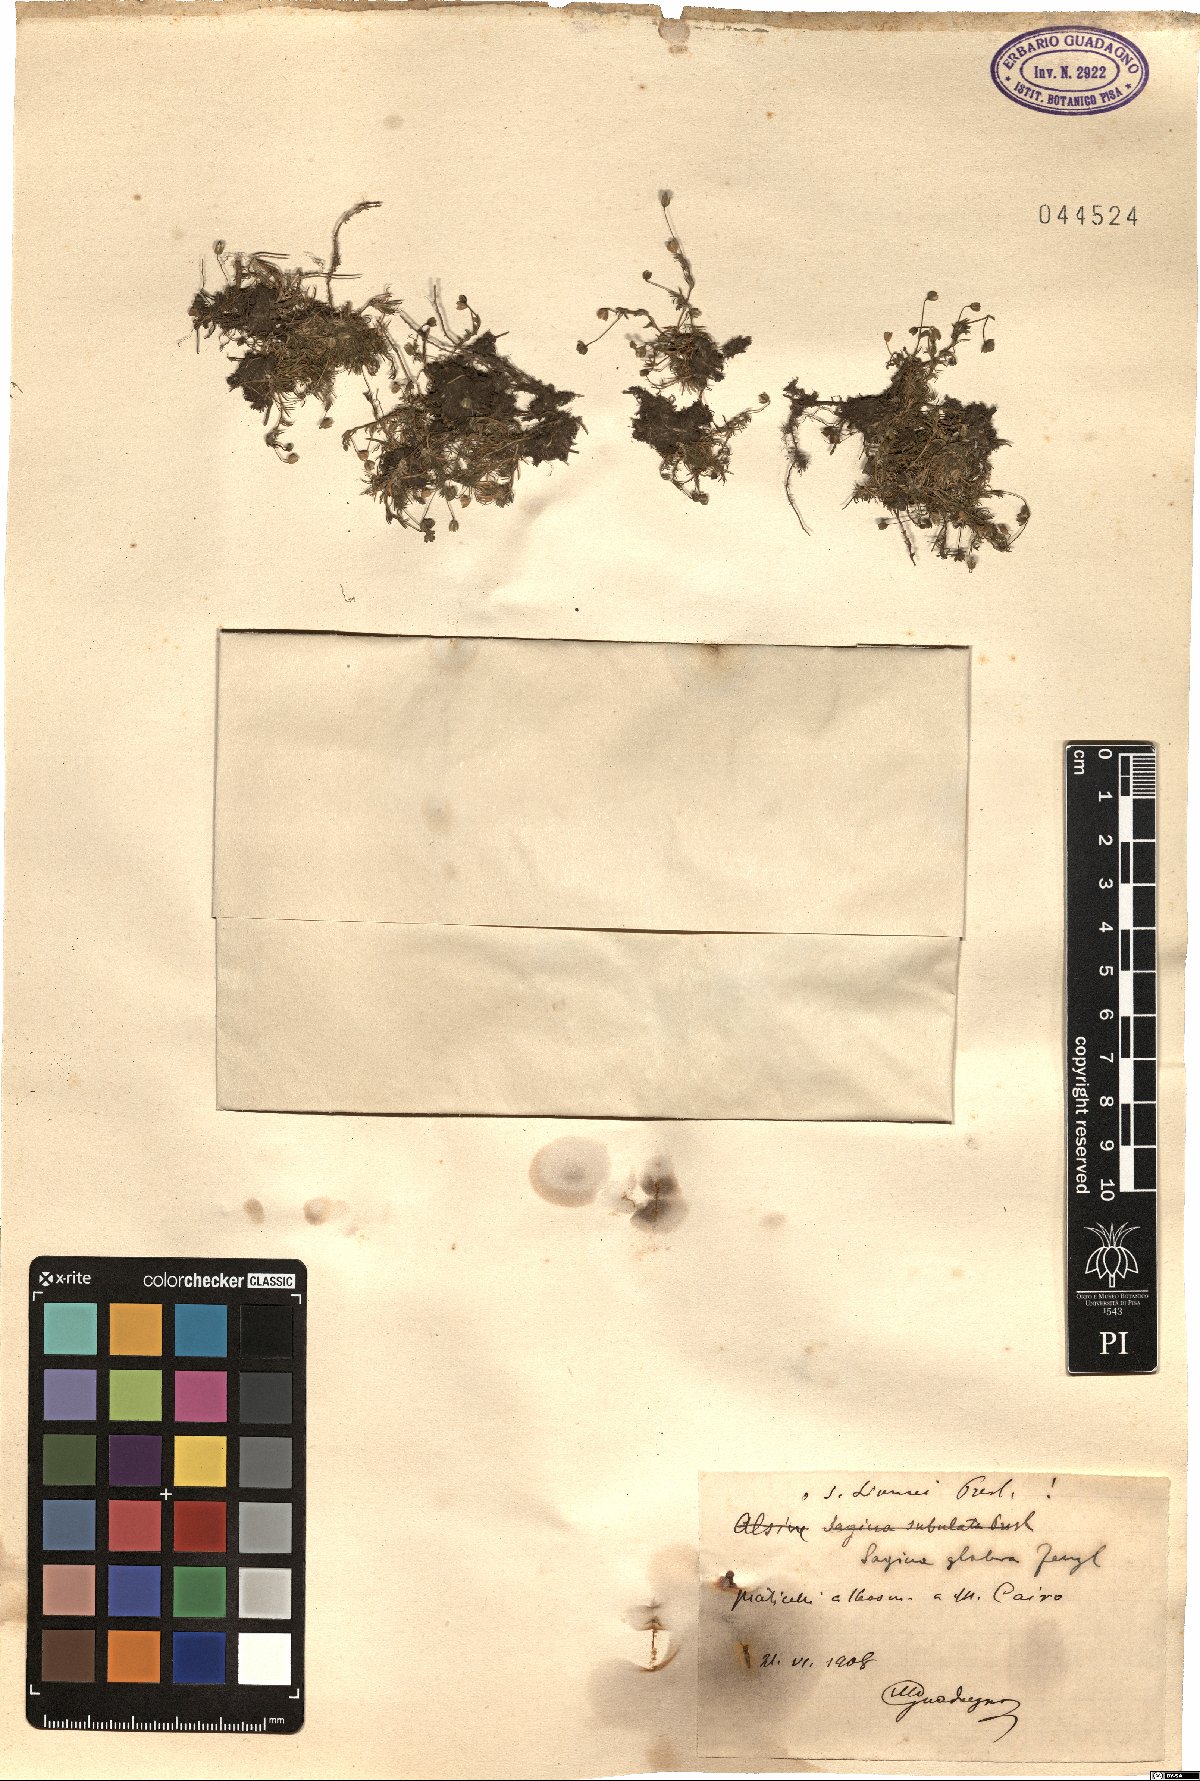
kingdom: Plantae
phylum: Tracheophyta
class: Magnoliopsida
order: Caryophyllales
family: Caryophyllaceae
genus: Sagina
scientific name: Sagina glabra
